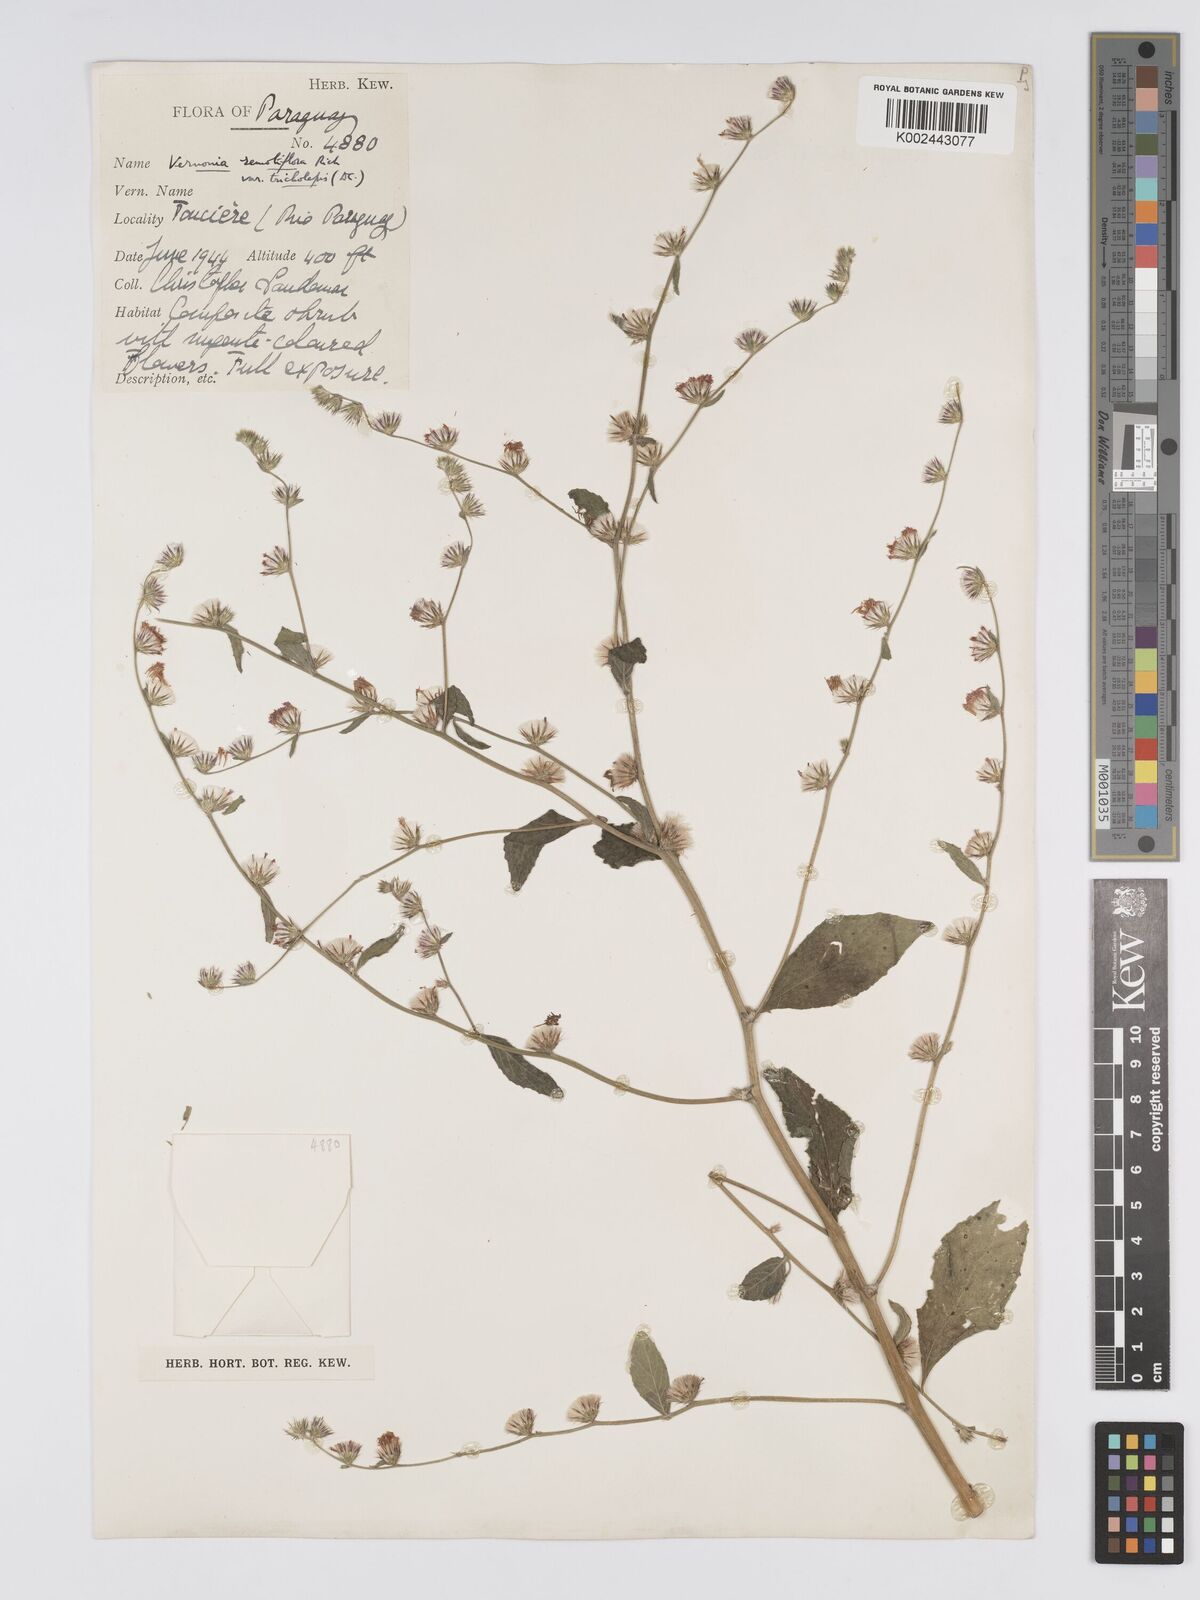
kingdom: Plantae
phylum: Tracheophyta
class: Magnoliopsida
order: Asterales
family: Asteraceae
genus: Lepidaploa
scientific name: Lepidaploa remotiflora
